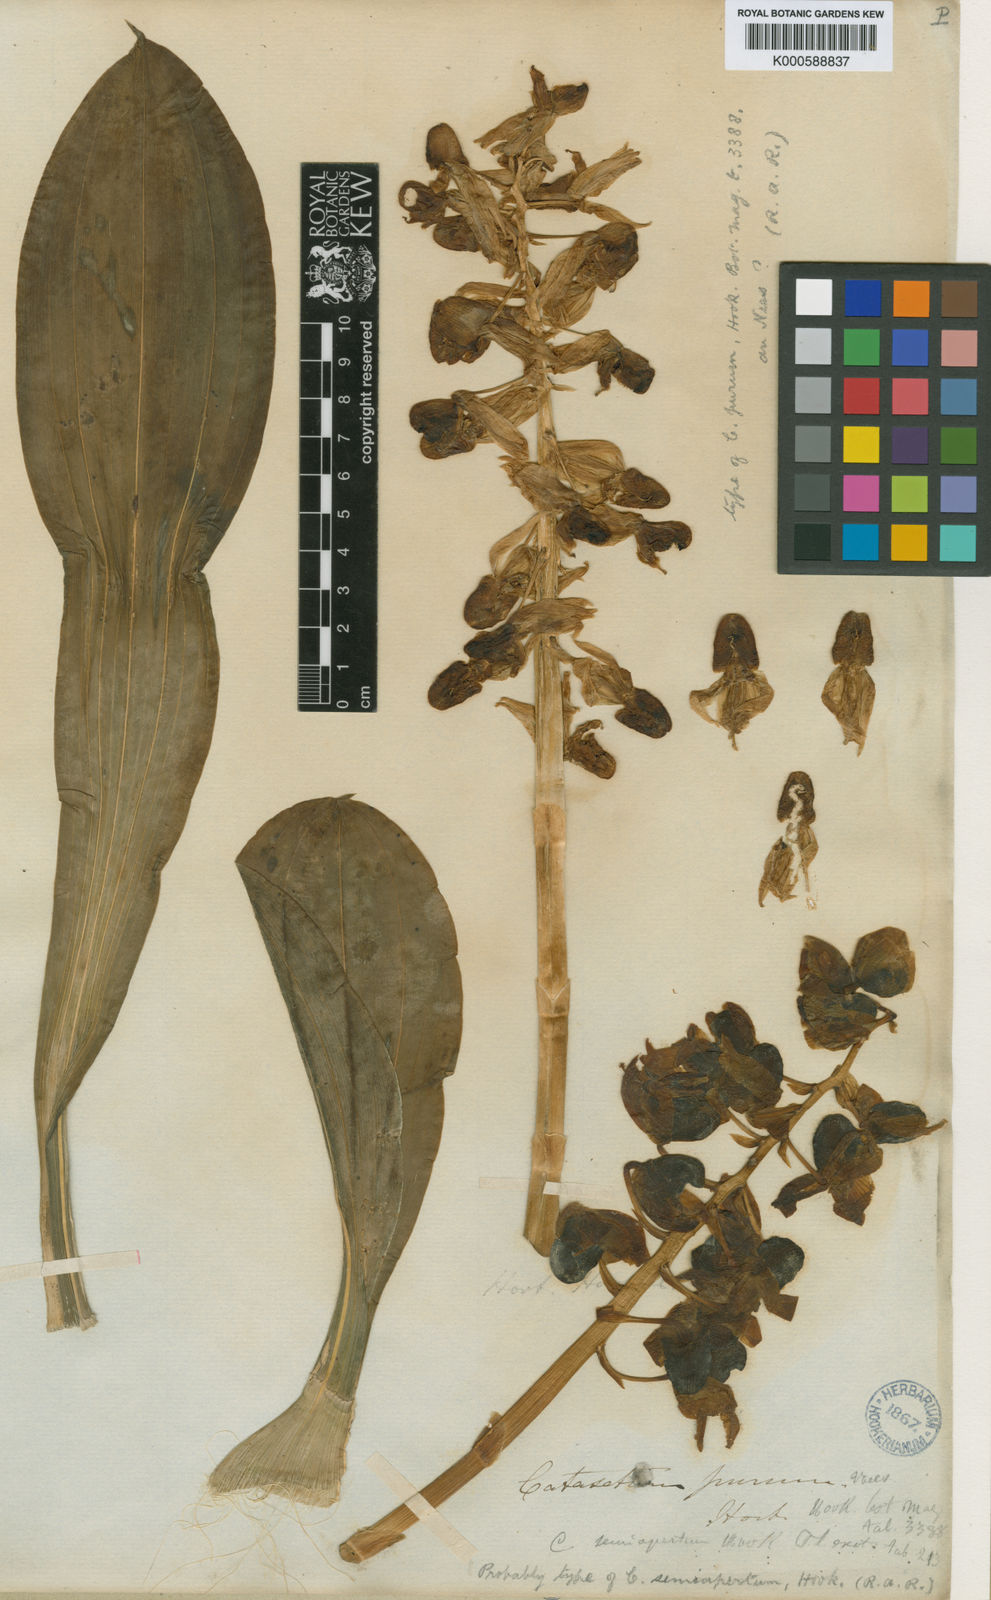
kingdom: Plantae
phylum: Tracheophyta
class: Liliopsida
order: Asparagales
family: Orchidaceae
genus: Catasetum
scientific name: Catasetum purum
